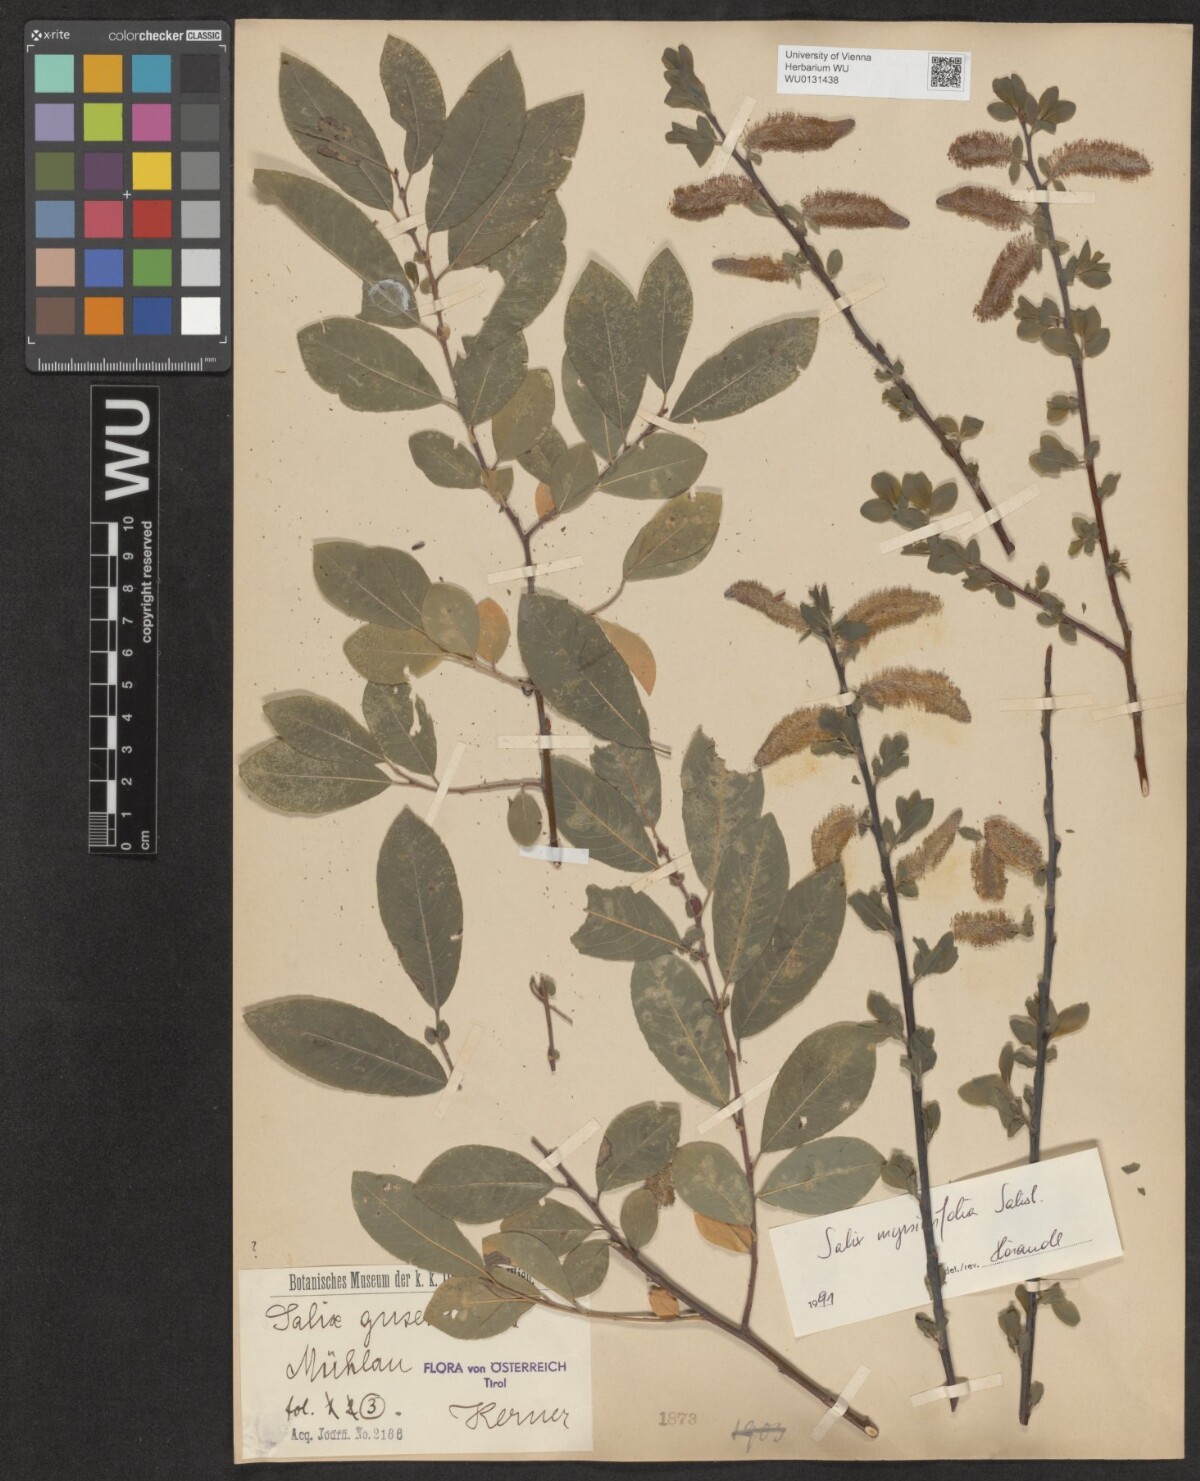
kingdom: Plantae
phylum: Tracheophyta
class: Magnoliopsida
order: Malpighiales
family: Salicaceae
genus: Salix
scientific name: Salix myrsinifolia
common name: Dark-leaved willow
